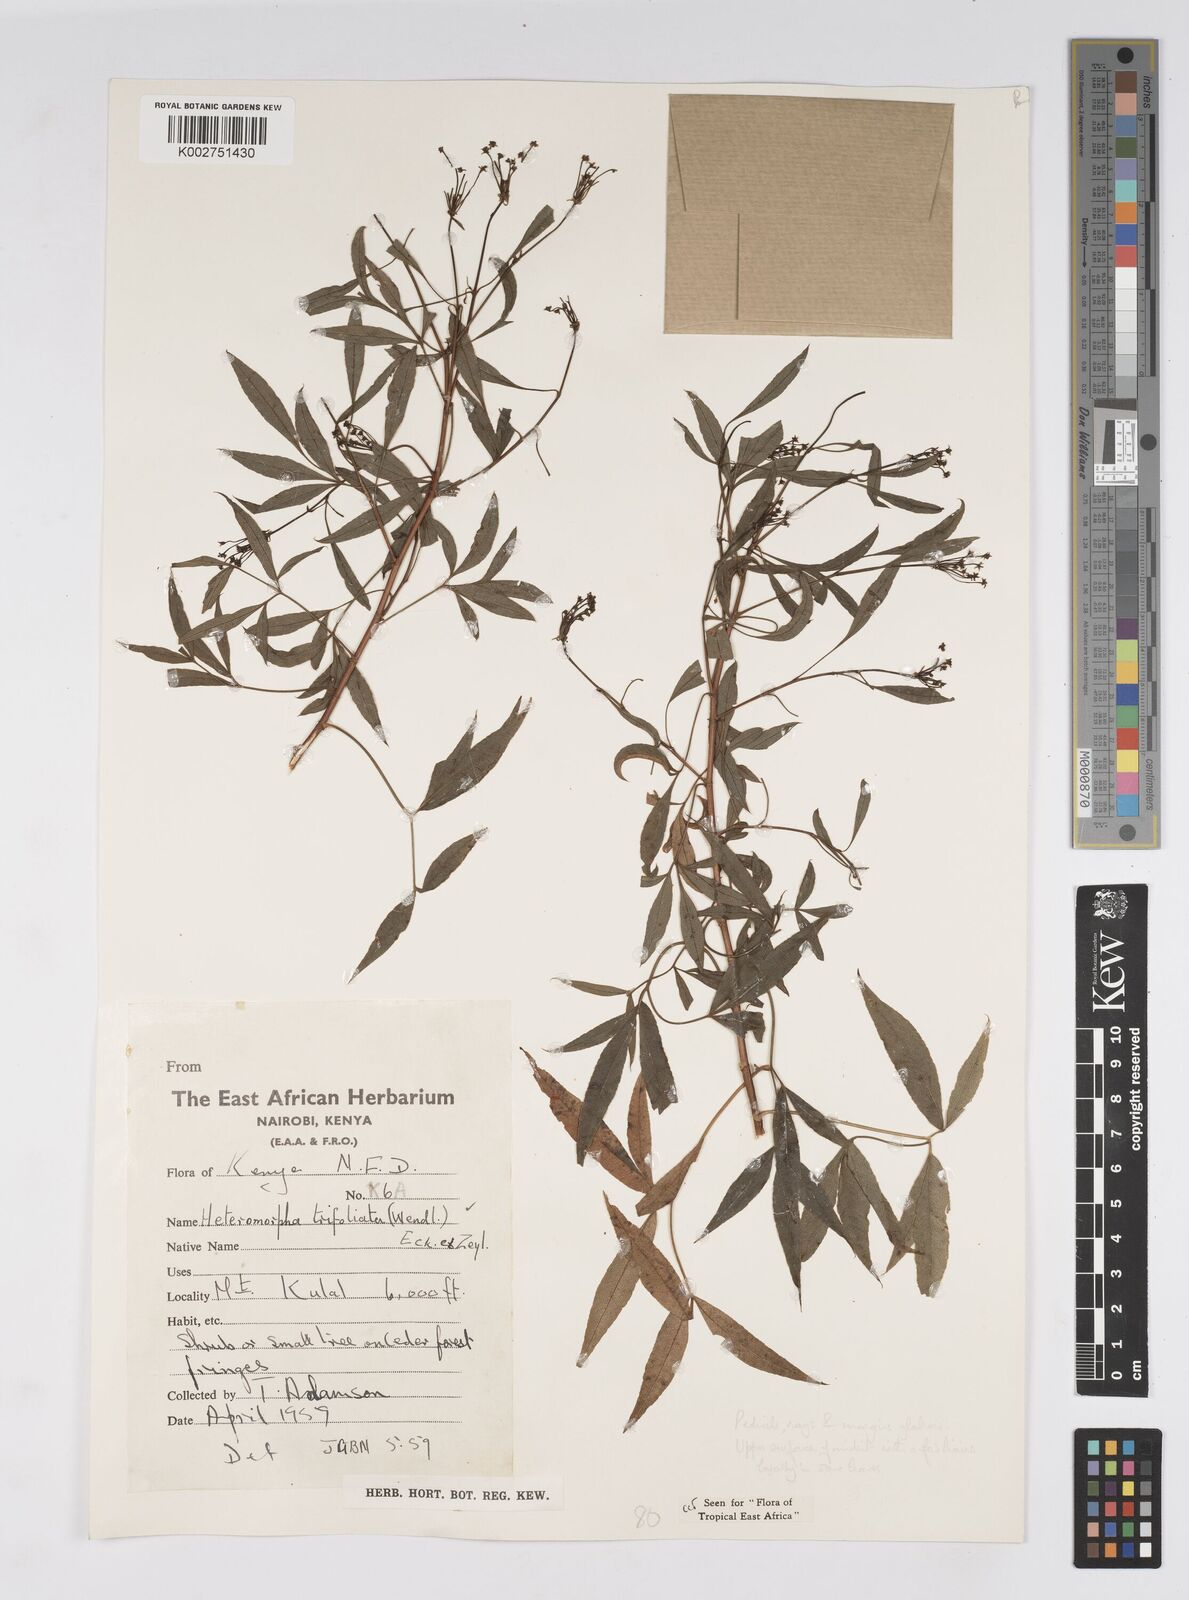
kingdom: Plantae
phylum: Tracheophyta
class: Magnoliopsida
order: Apiales
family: Apiaceae
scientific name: Apiaceae
